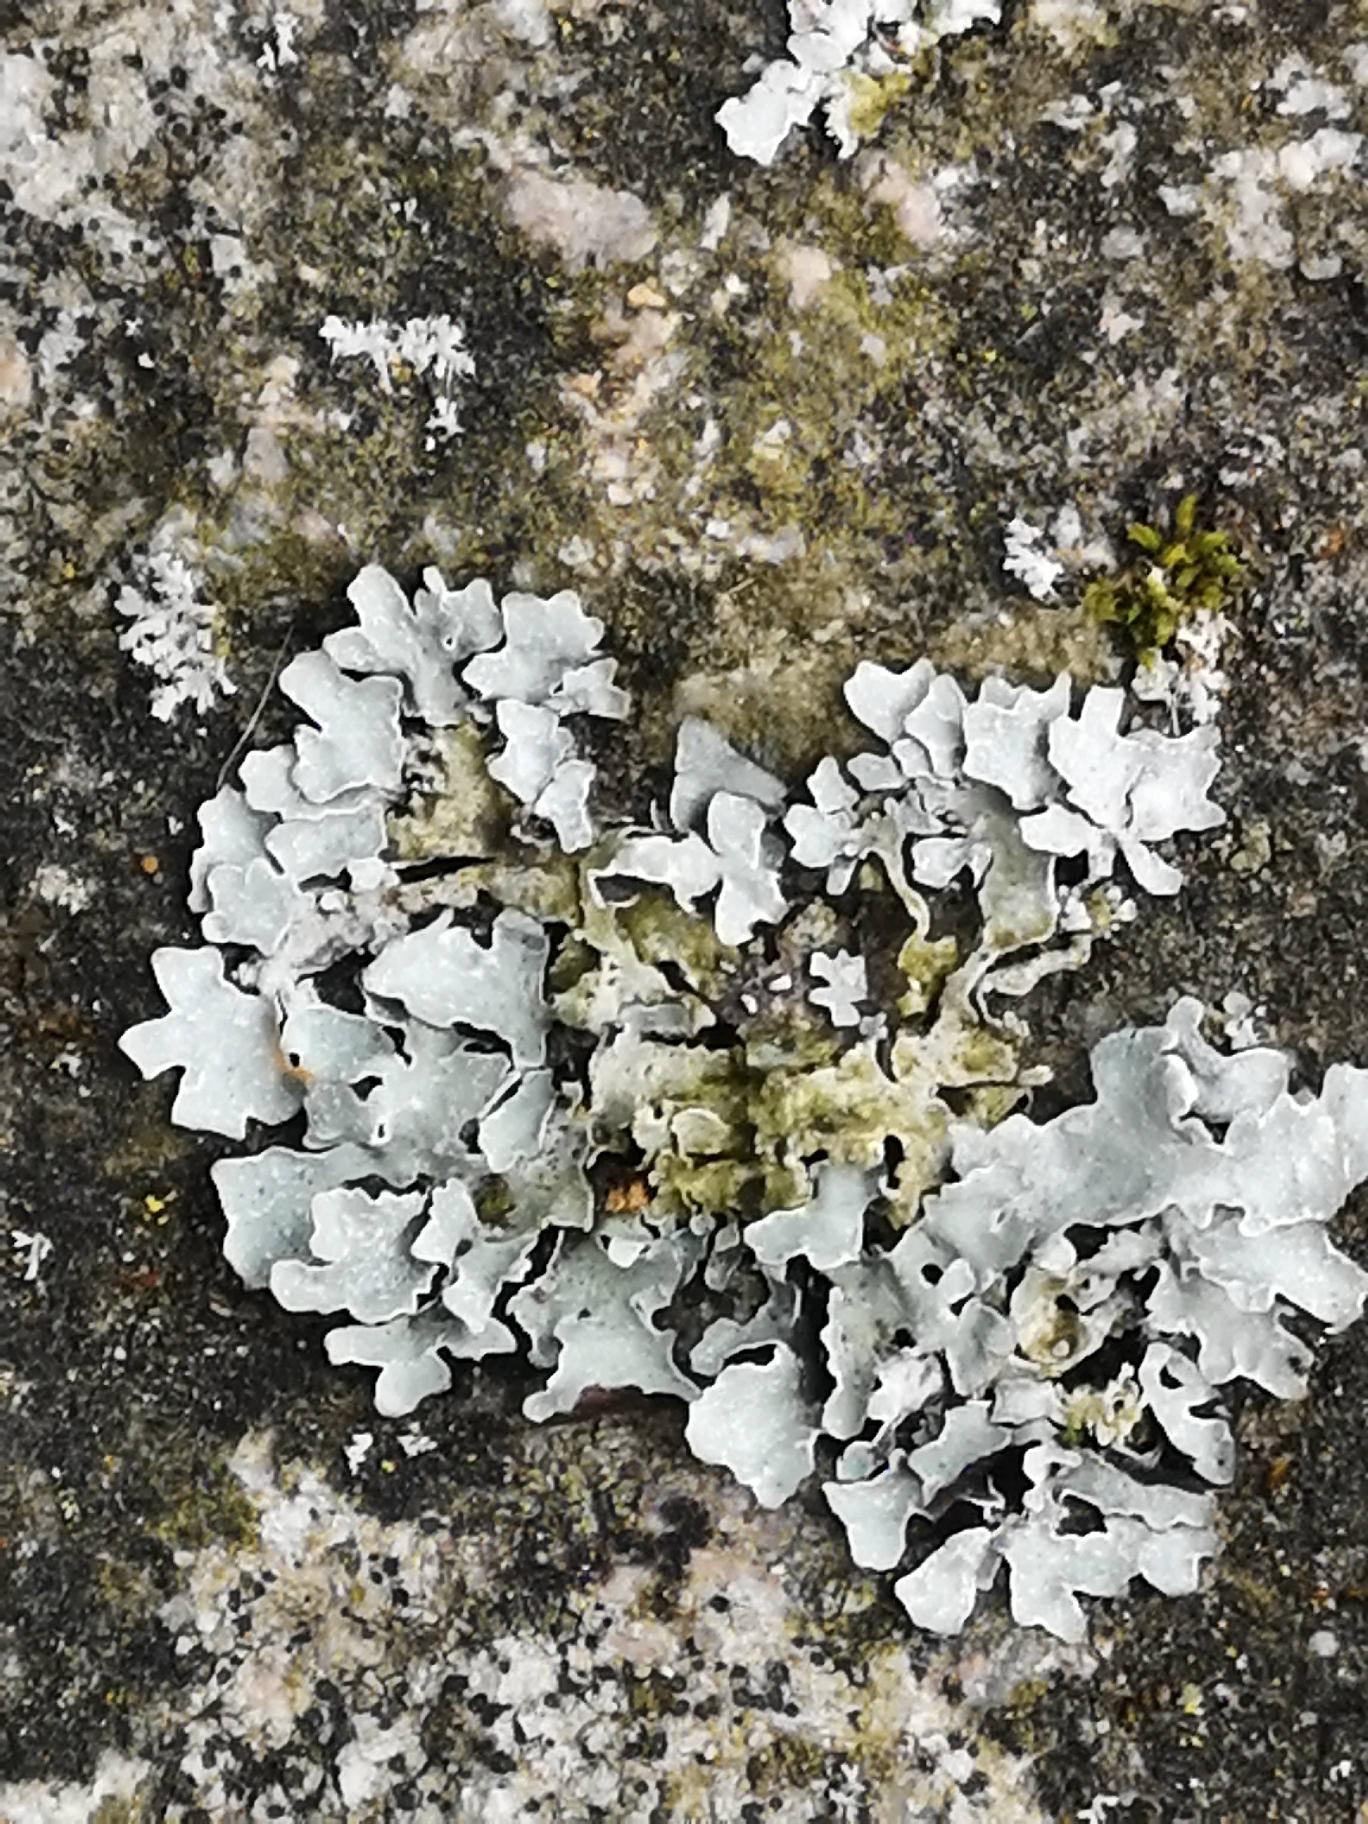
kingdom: Fungi
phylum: Ascomycota
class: Lecanoromycetes
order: Lecanorales
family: Parmeliaceae
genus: Parmelia
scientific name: Parmelia sulcata
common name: Rynket skållav
